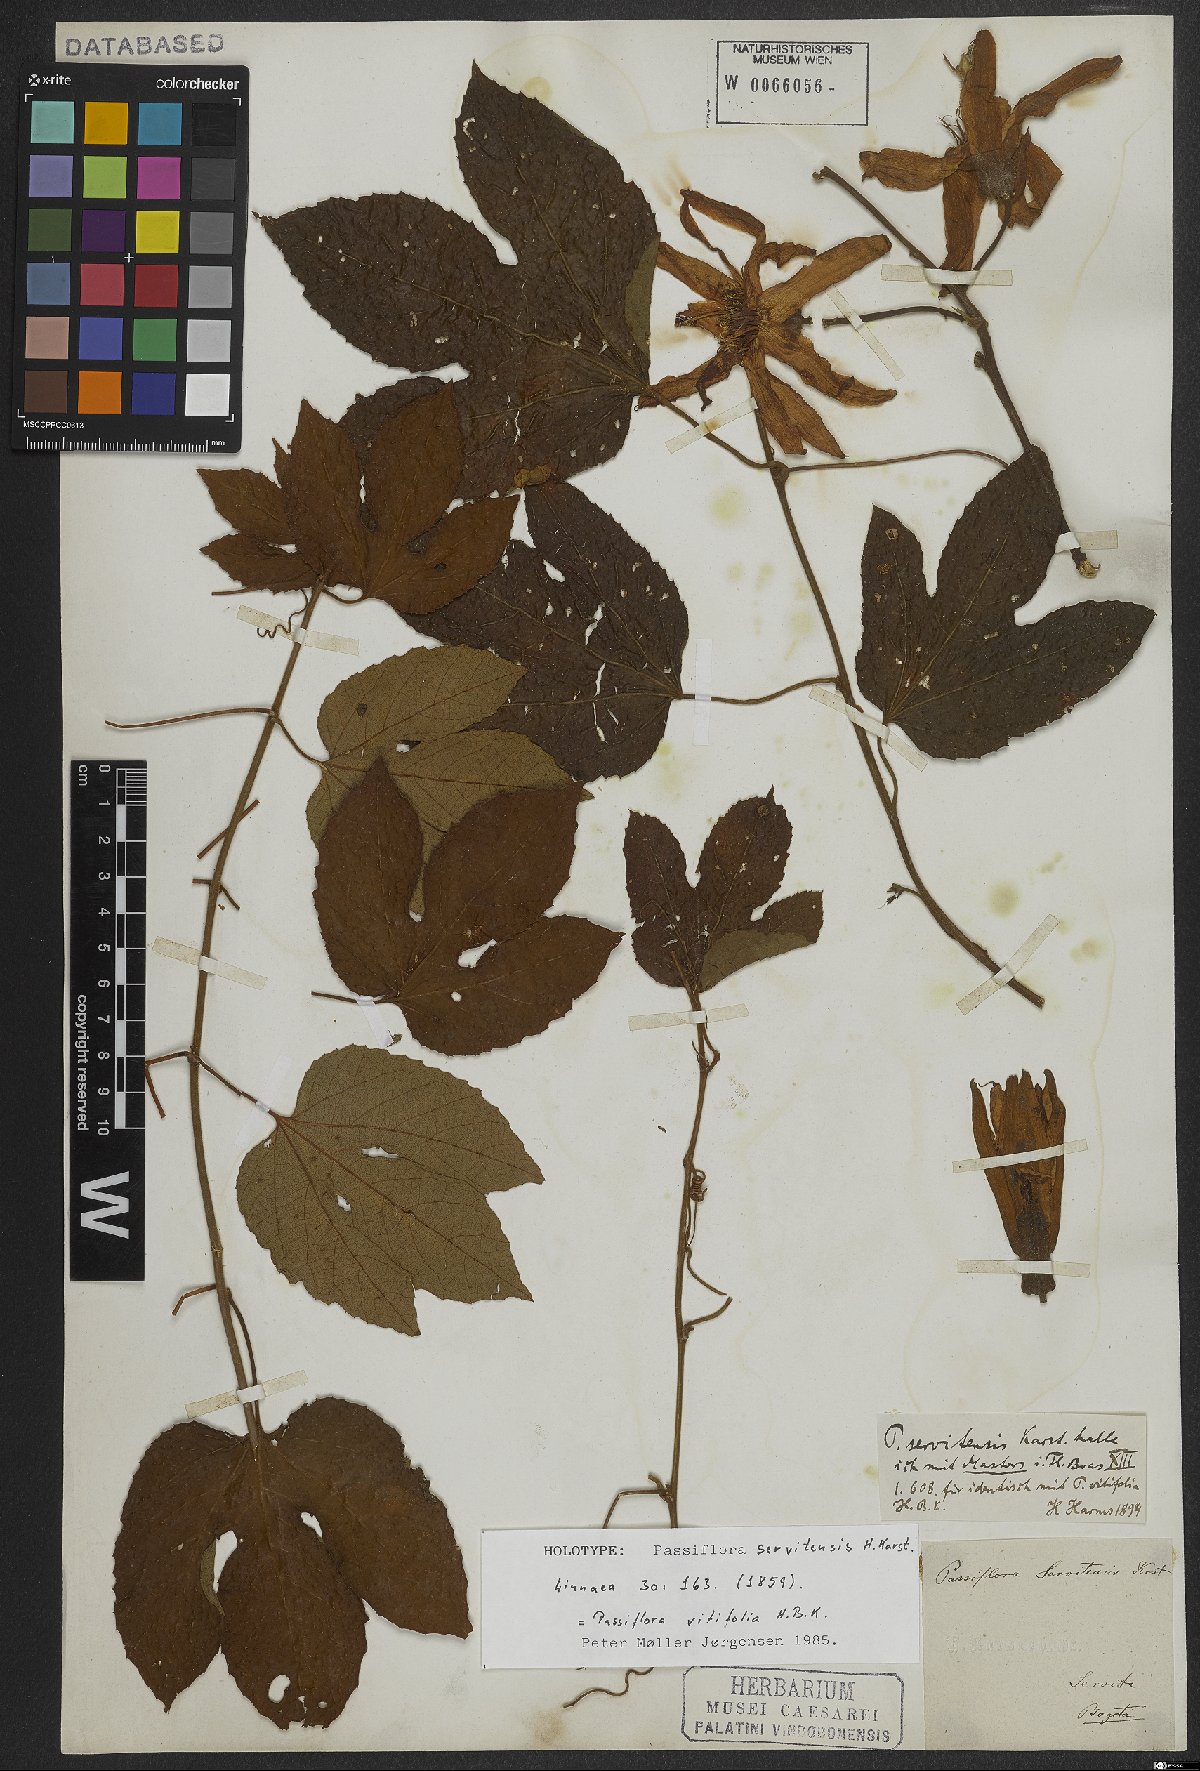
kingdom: Plantae
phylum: Tracheophyta
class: Magnoliopsida
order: Malpighiales
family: Passifloraceae
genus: Passiflora
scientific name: Passiflora vitifolia
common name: Perfumed passionflower
